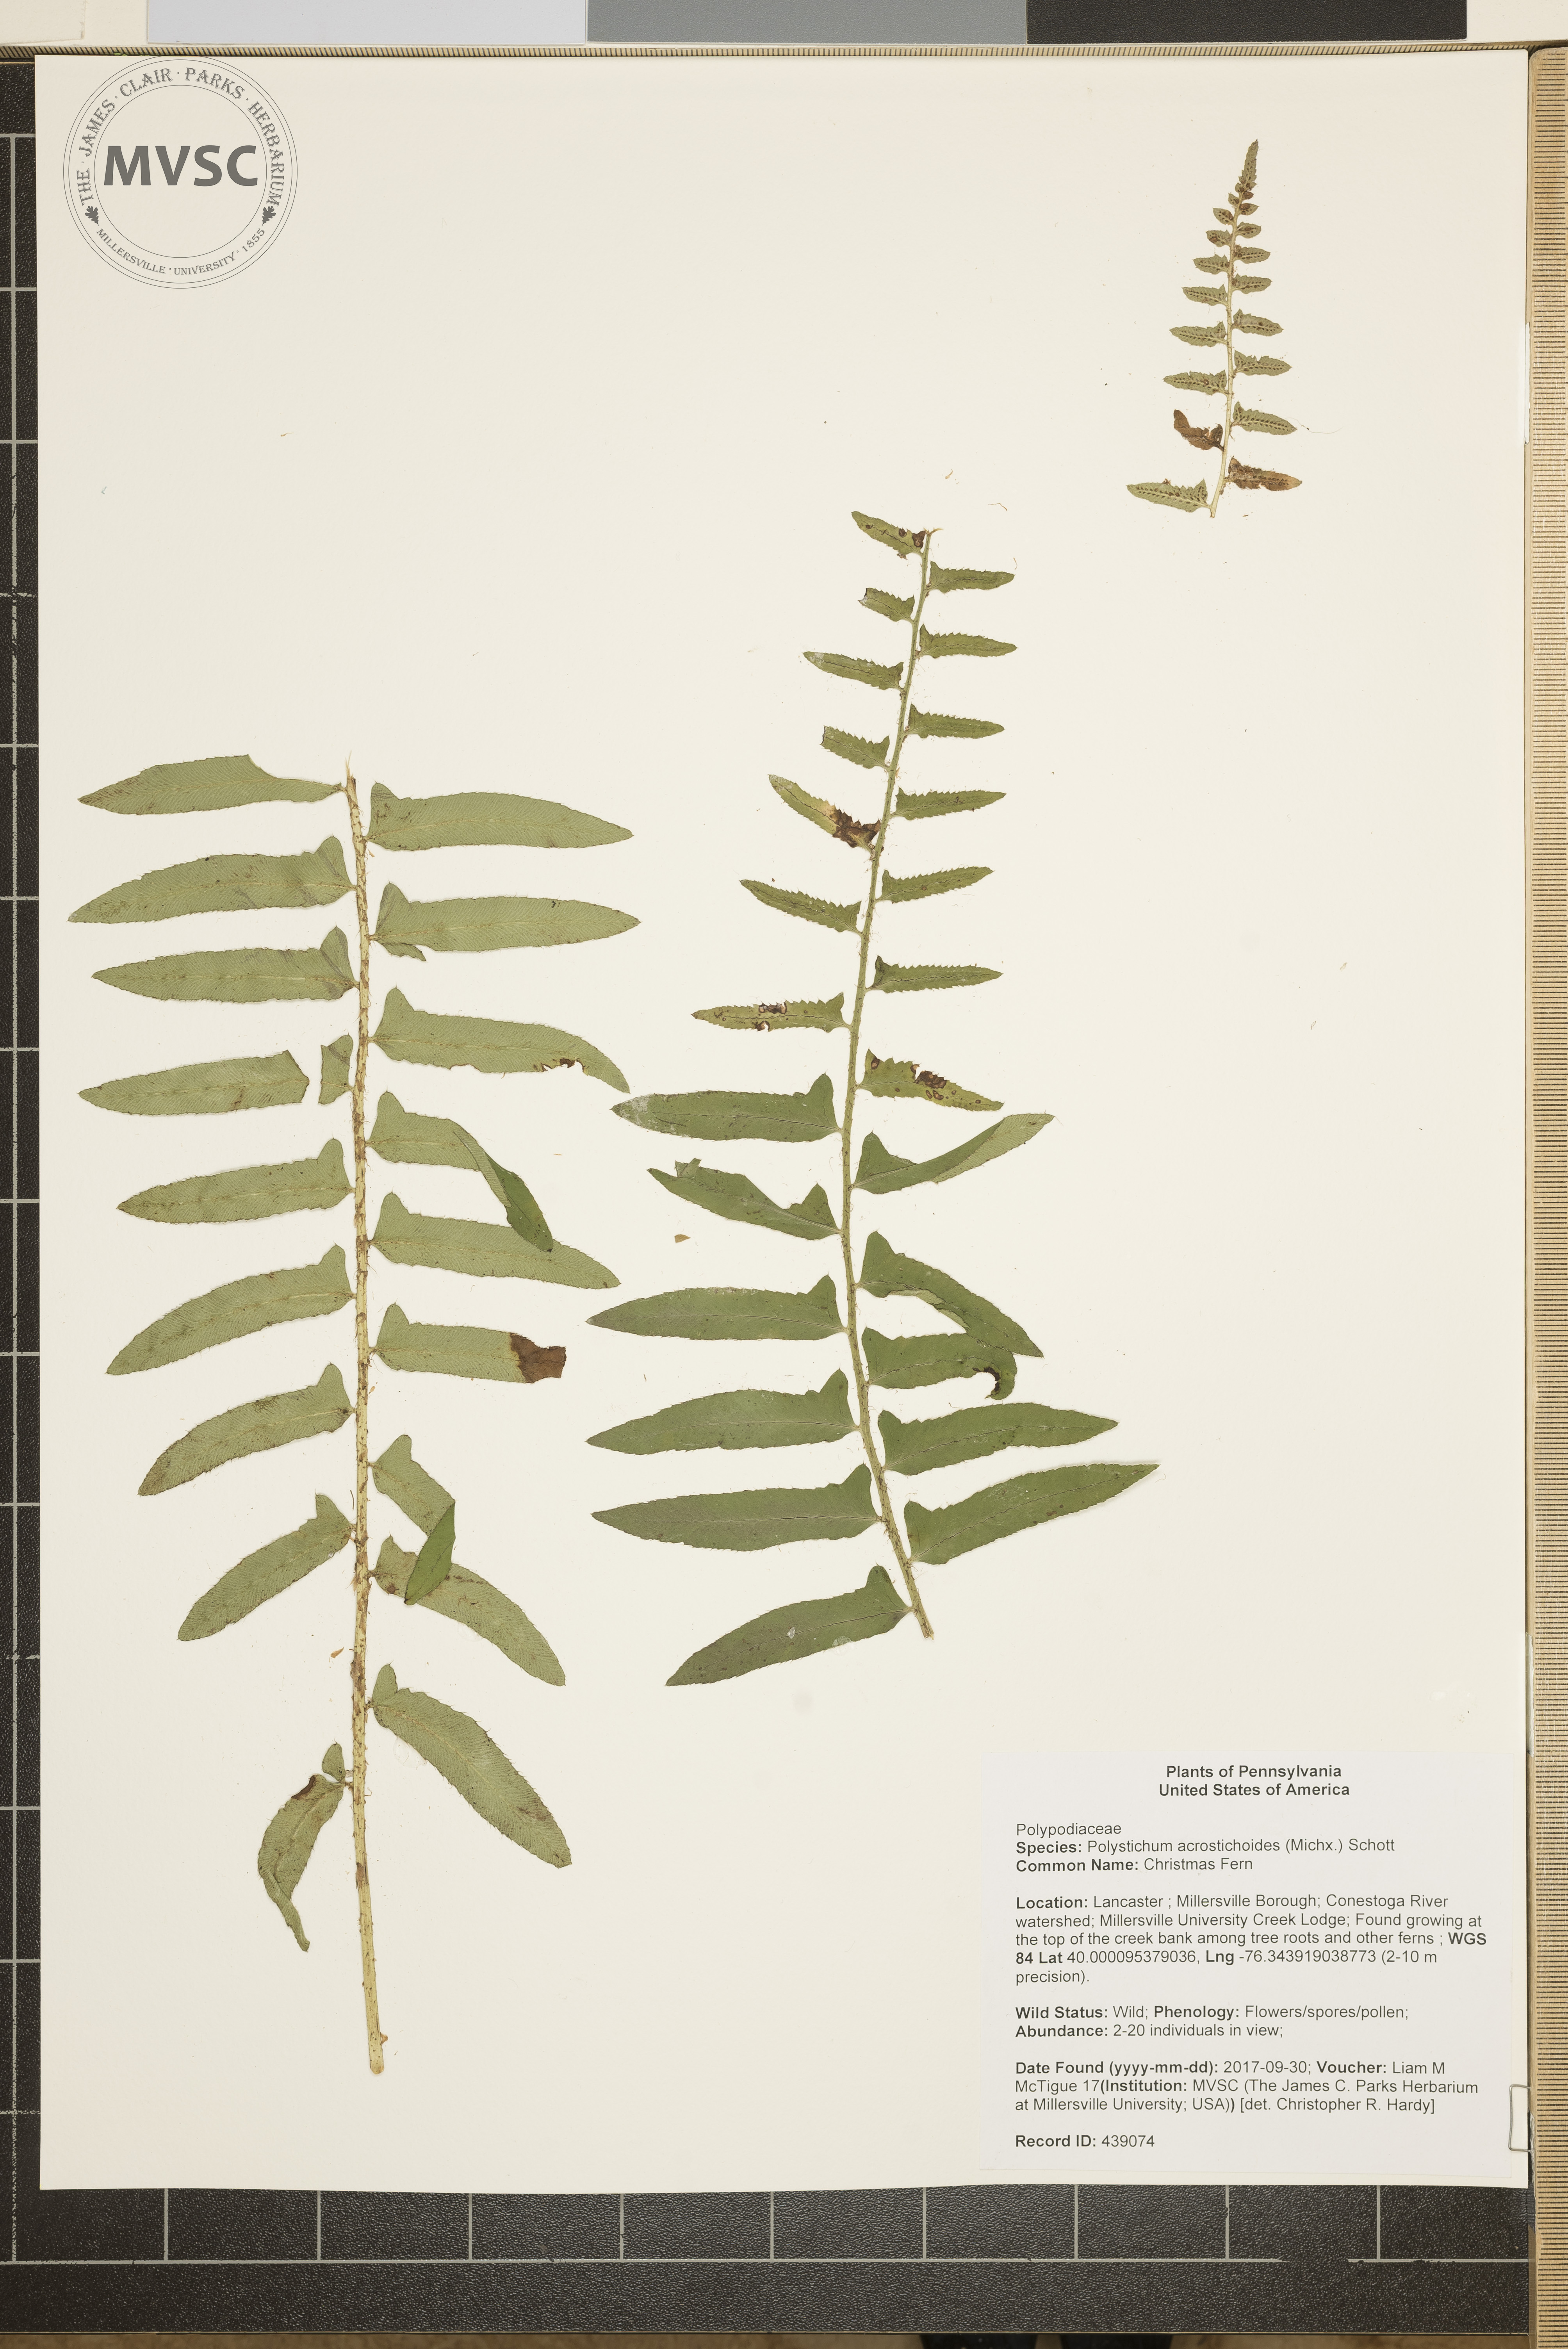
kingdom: Plantae
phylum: Tracheophyta
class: Polypodiopsida
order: Polypodiales
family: Dryopteridaceae
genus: Polystichum
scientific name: Polystichum acrostichoides
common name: Christmas Fern
